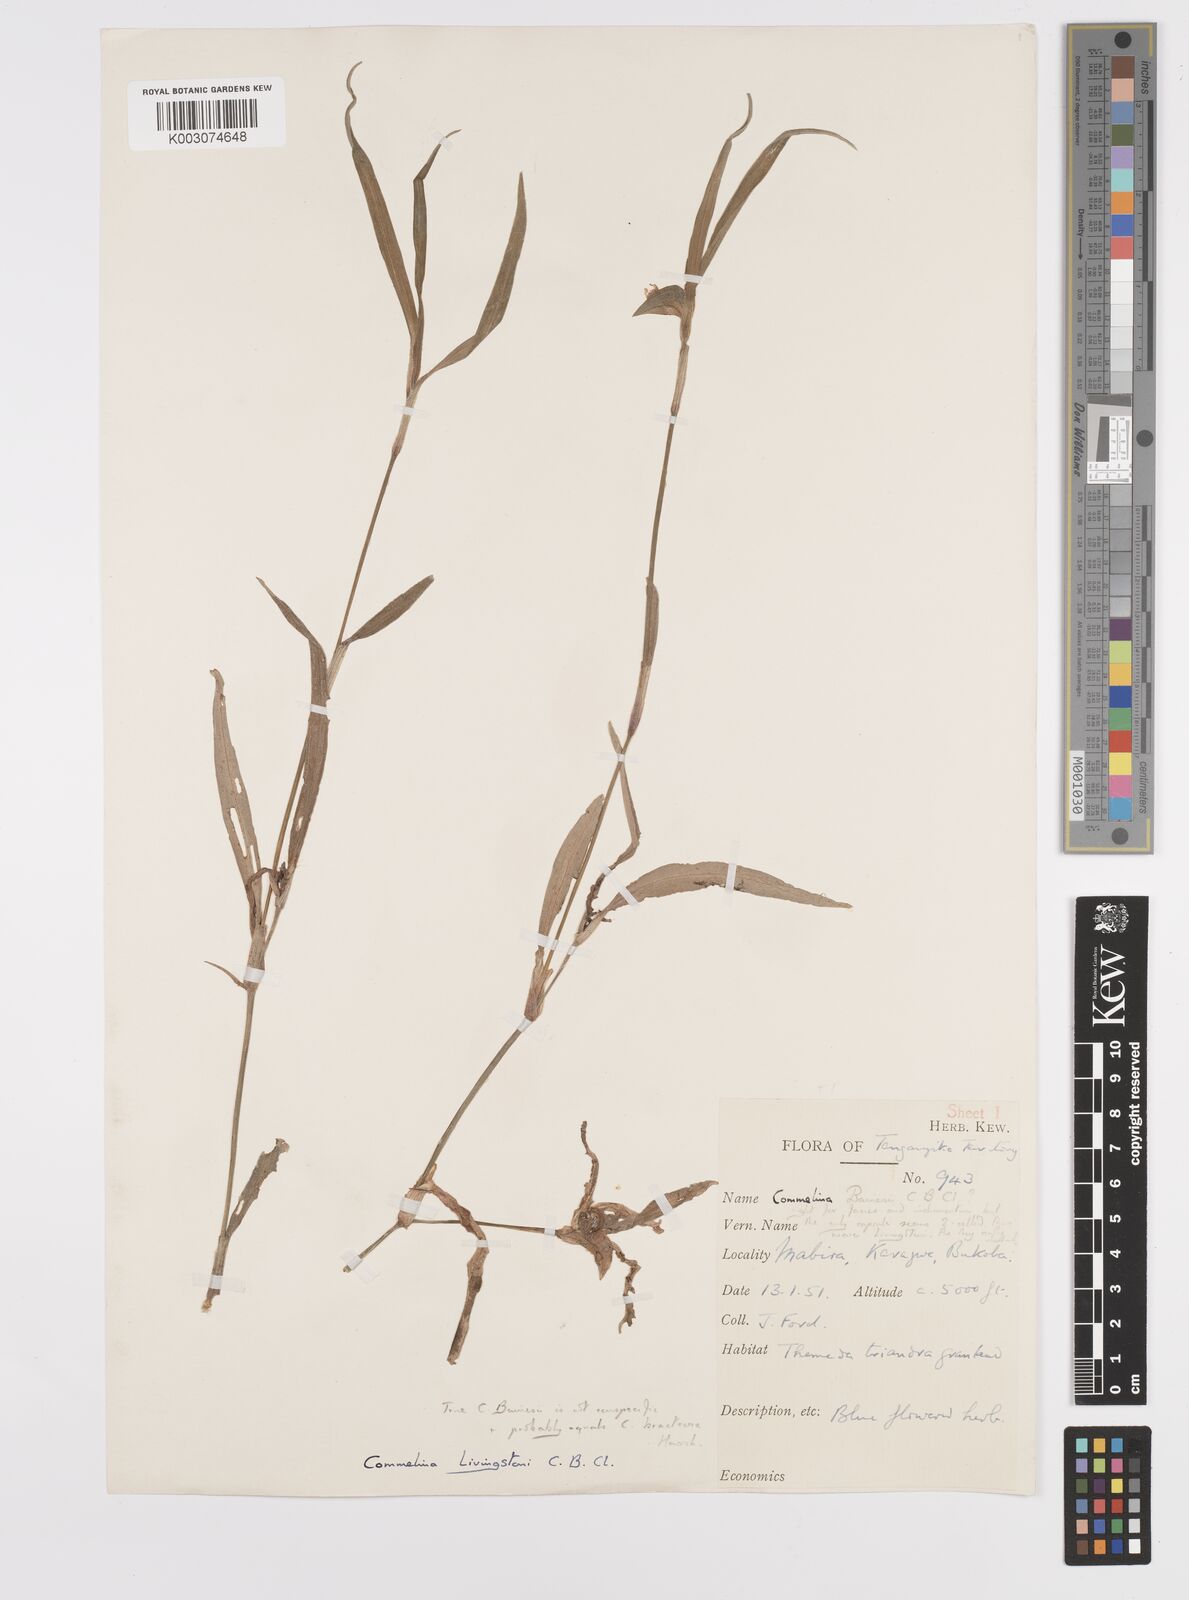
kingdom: Plantae
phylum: Tracheophyta
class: Liliopsida
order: Commelinales
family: Commelinaceae
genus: Commelina
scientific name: Commelina erecta
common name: Blousel blommetjie
